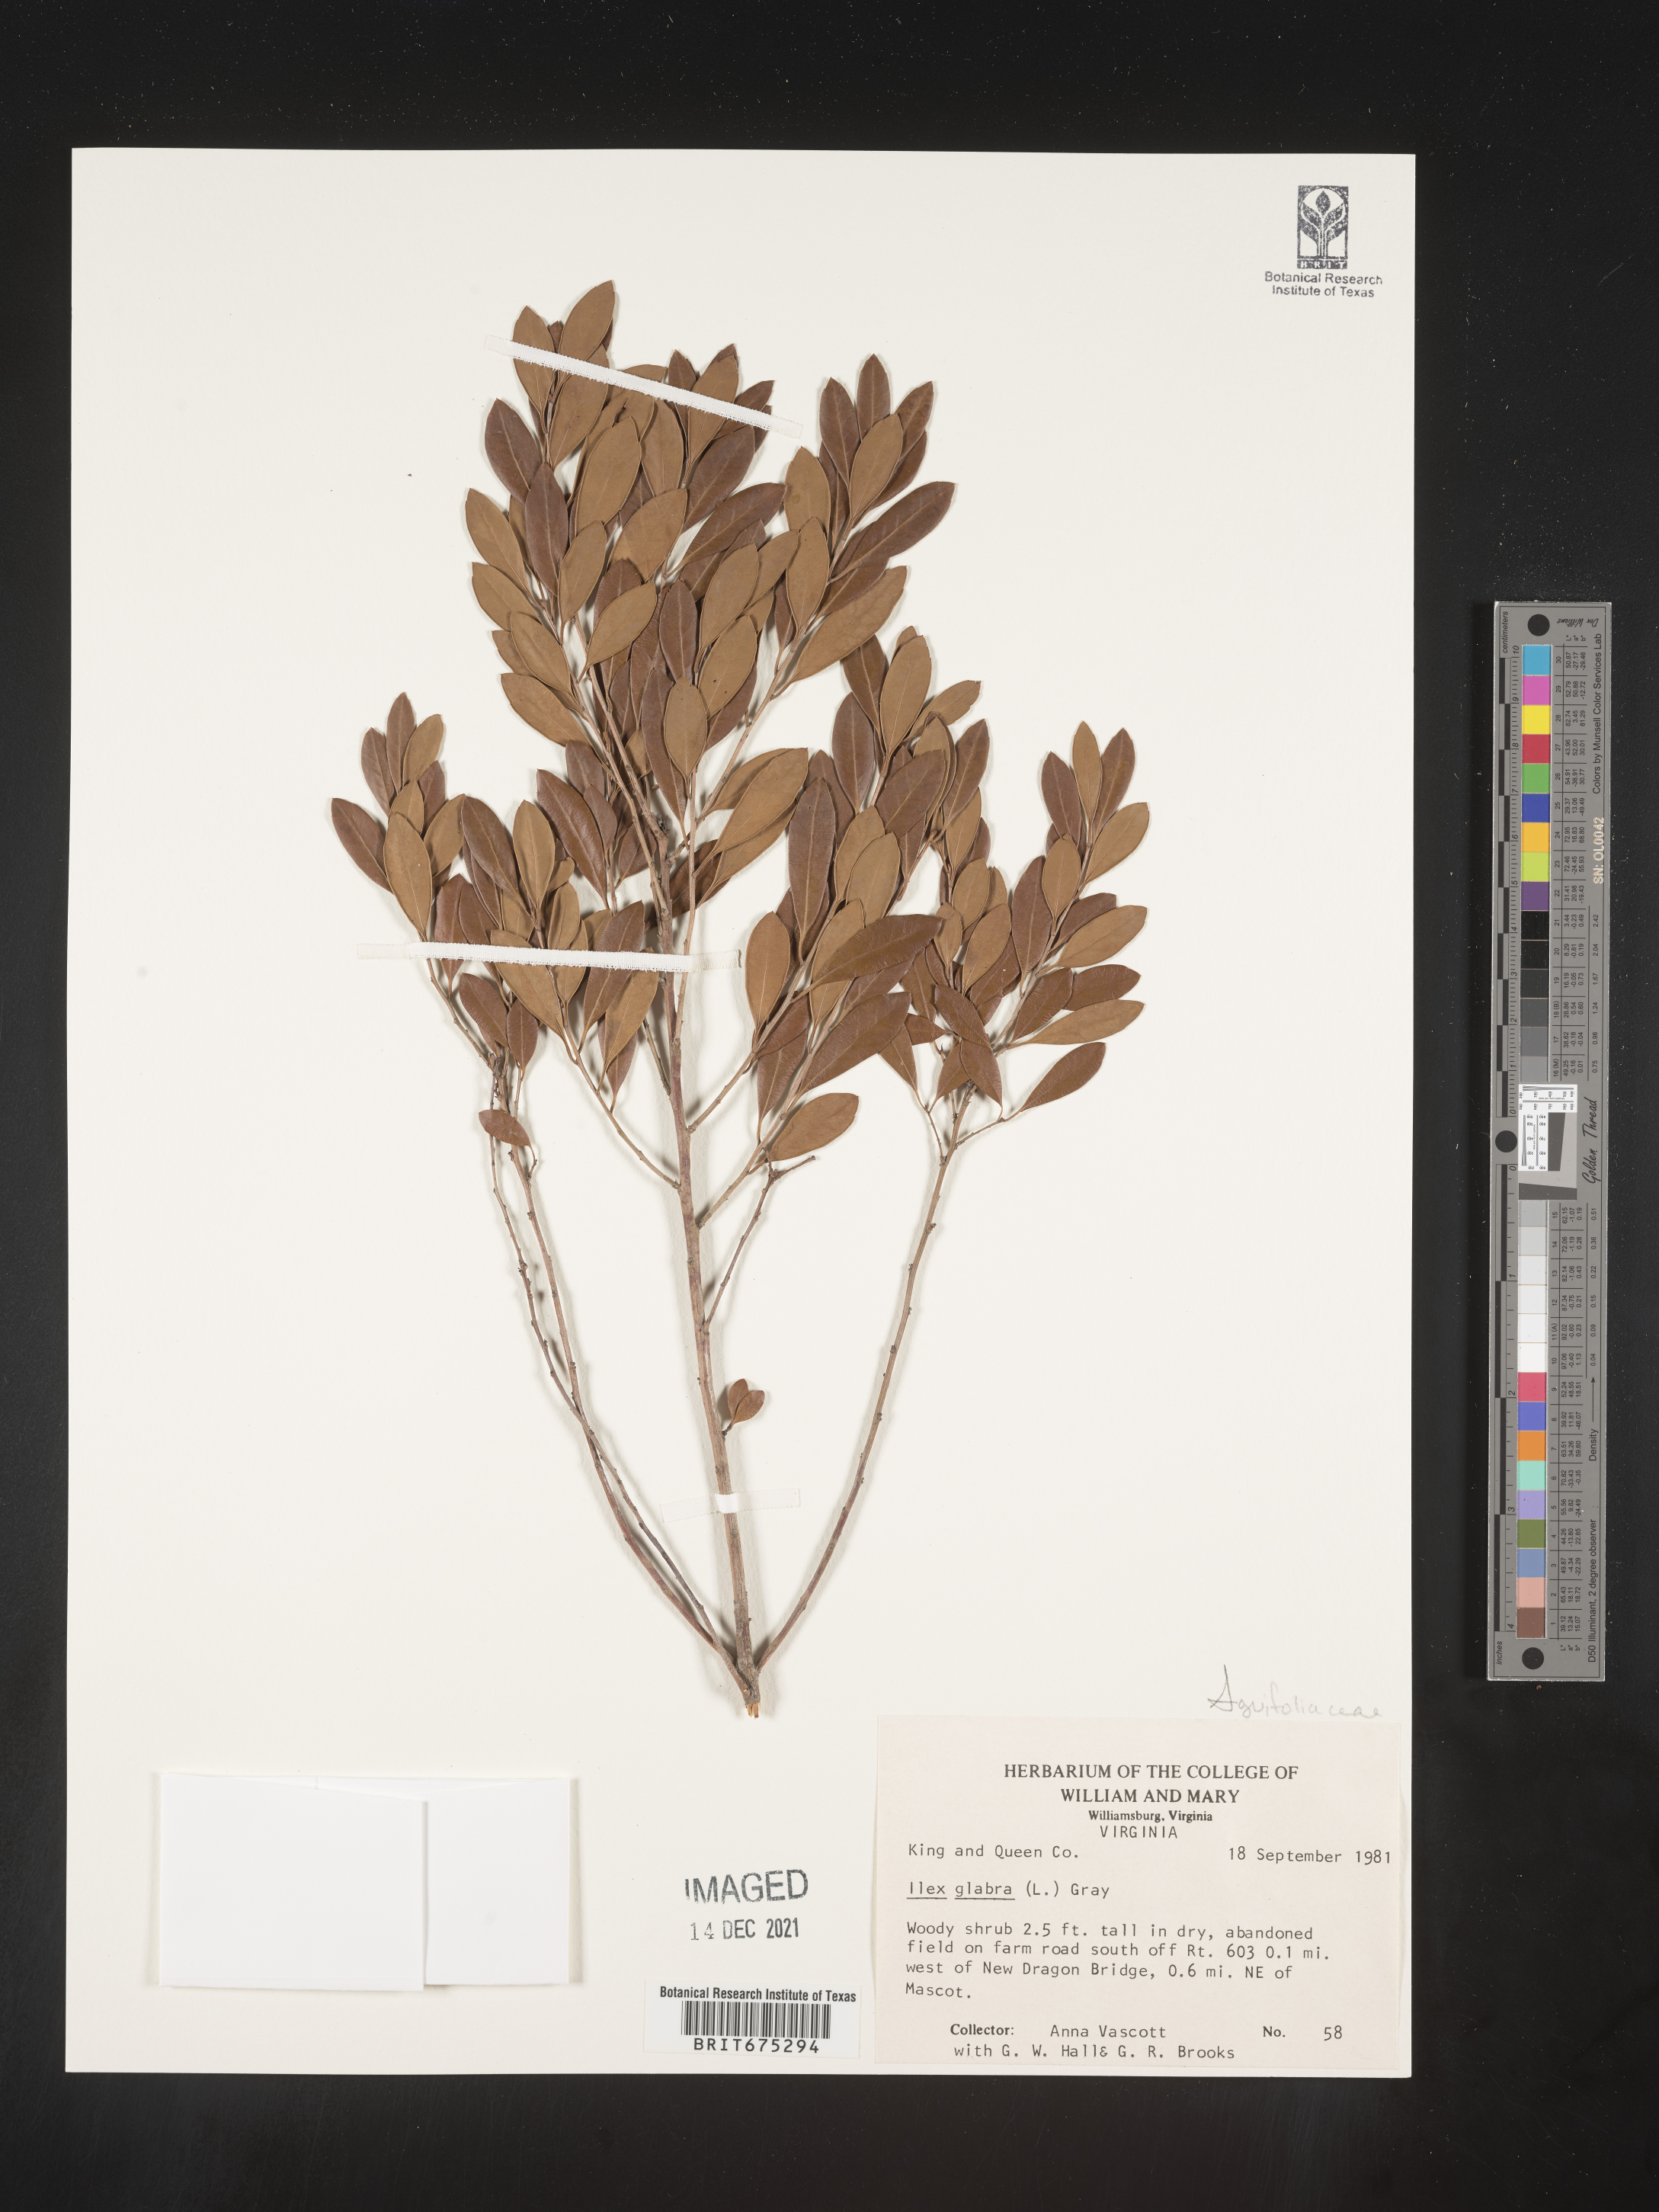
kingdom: Plantae
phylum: Tracheophyta
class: Magnoliopsida
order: Aquifoliales
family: Aquifoliaceae
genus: Ilex
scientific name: Ilex glabra
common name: Bitter gallberry
